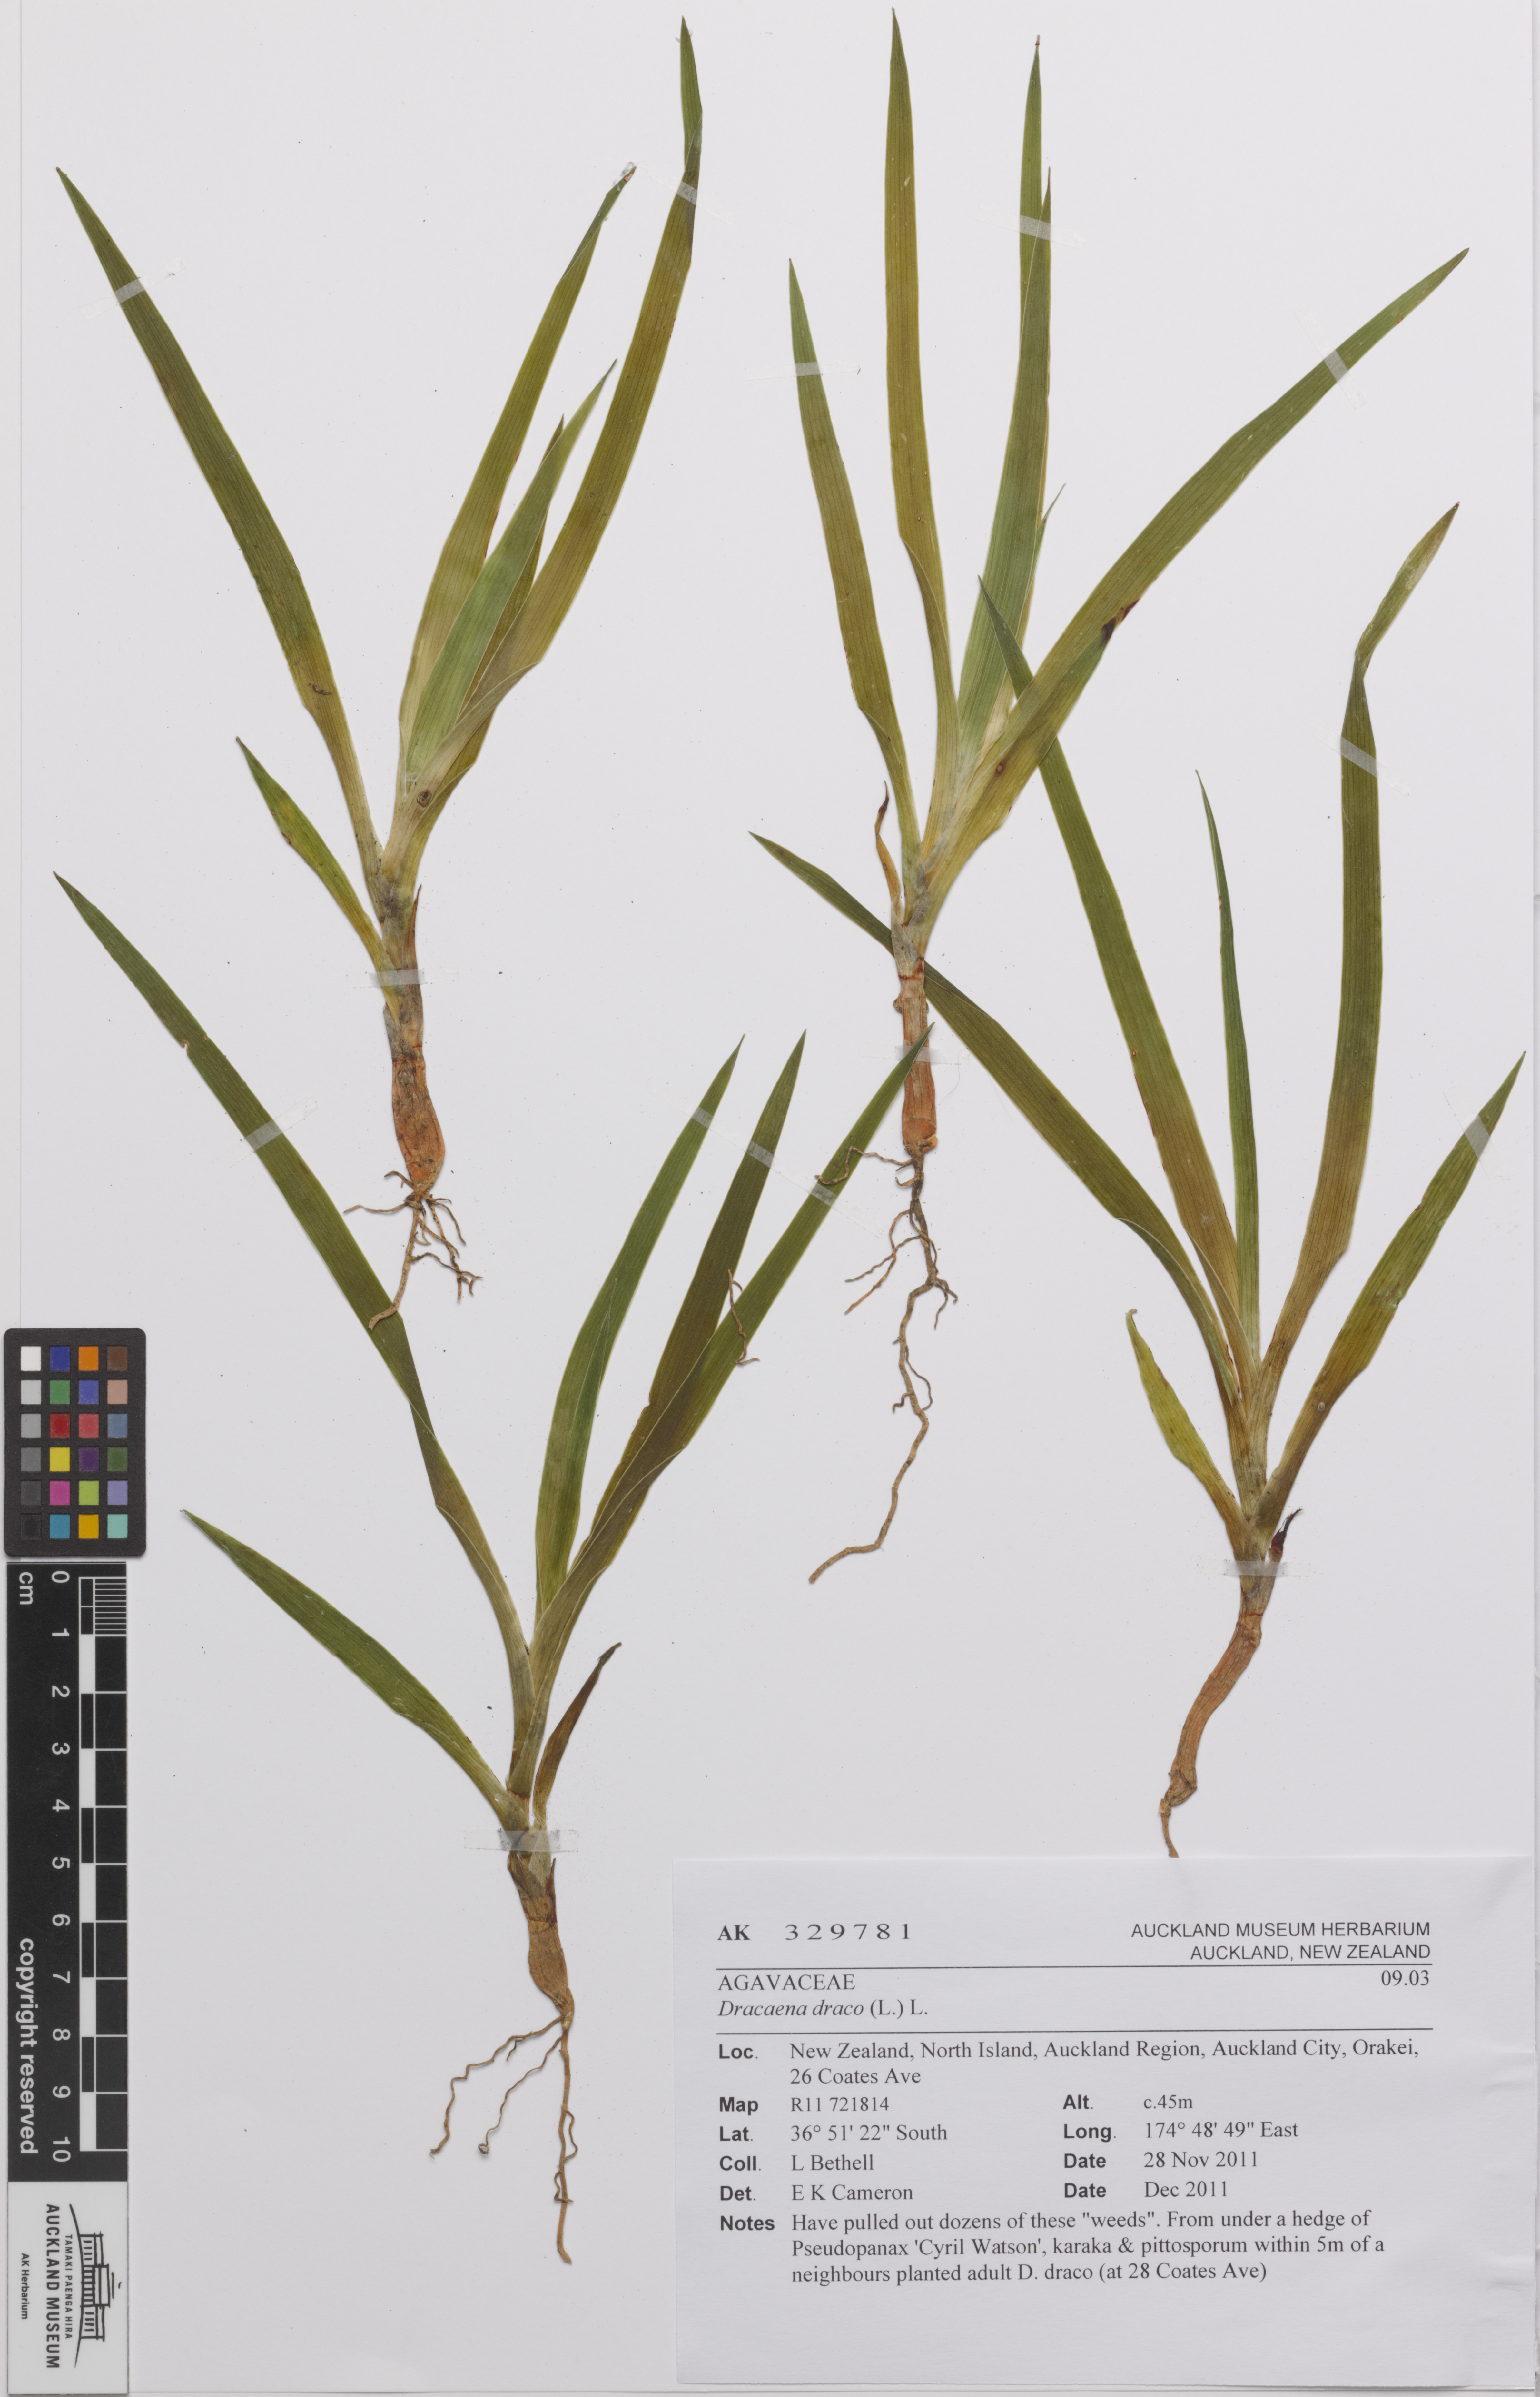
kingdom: Plantae
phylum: Tracheophyta
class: Liliopsida
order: Asparagales
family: Asparagaceae
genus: Dracaena
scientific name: Dracaena draco
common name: Canary island dragon tree
